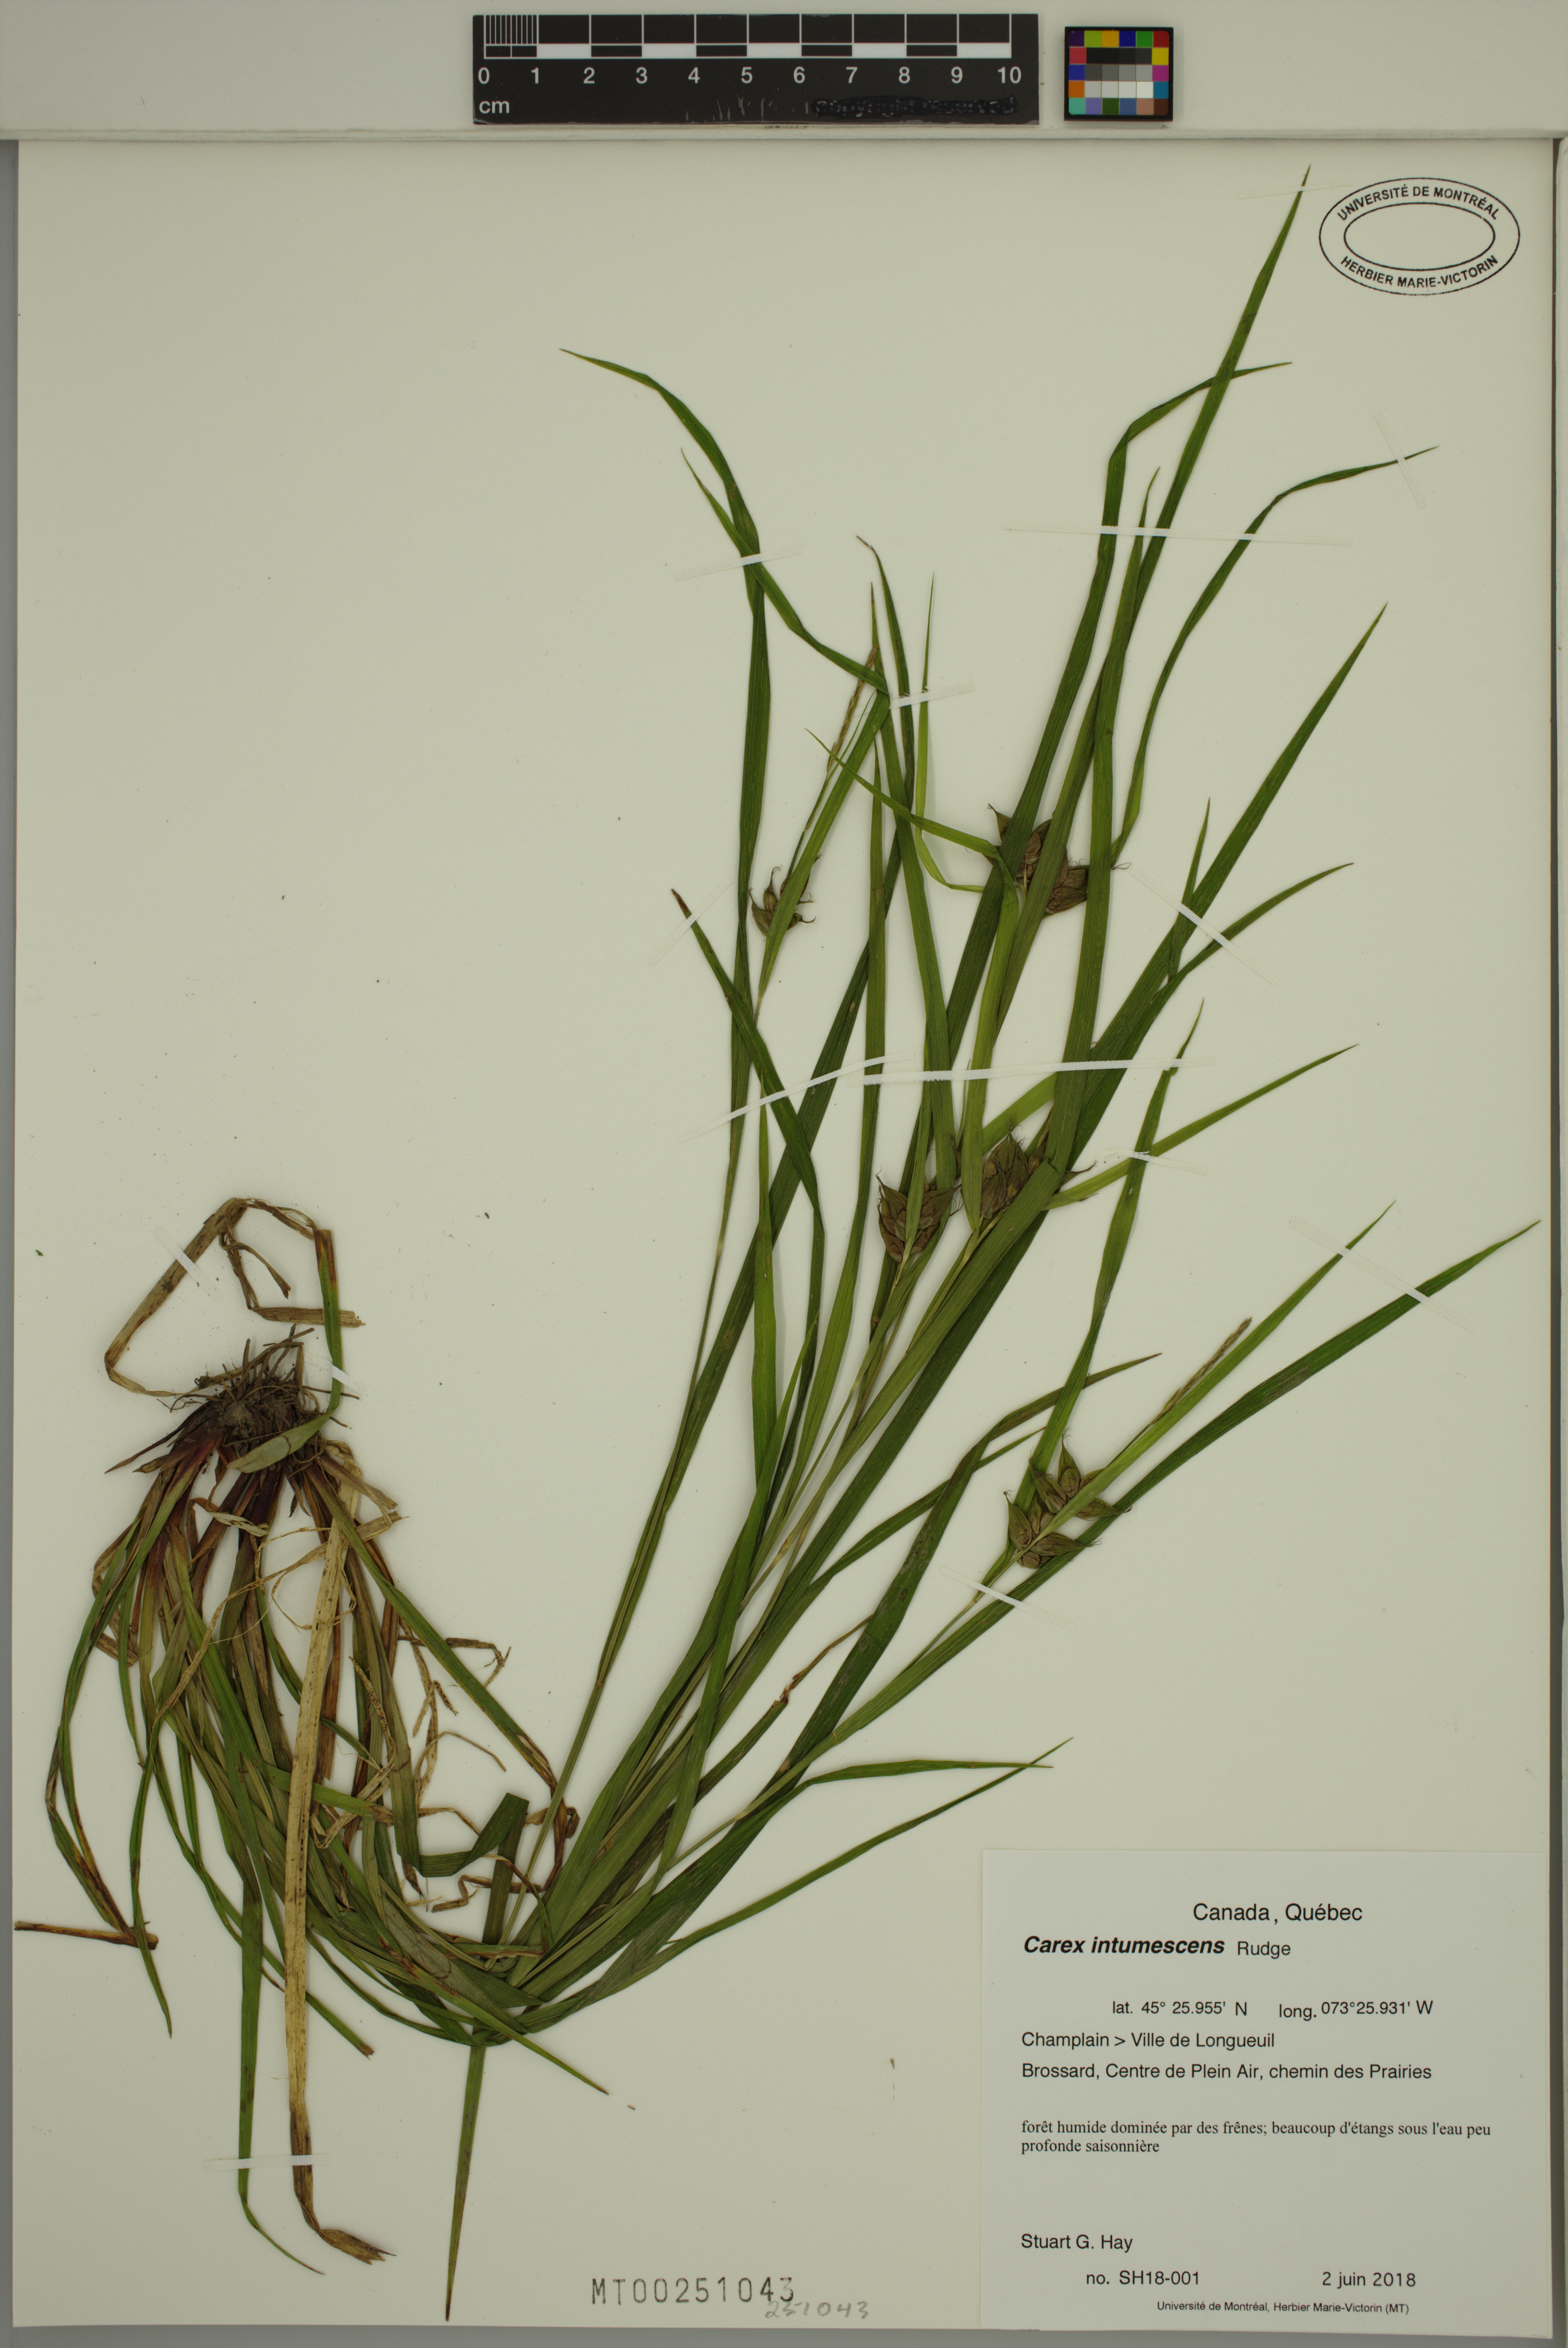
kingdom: Plantae
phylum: Tracheophyta
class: Liliopsida
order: Poales
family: Cyperaceae
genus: Carex
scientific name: Carex intumescens
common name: Greater bladder sedge
